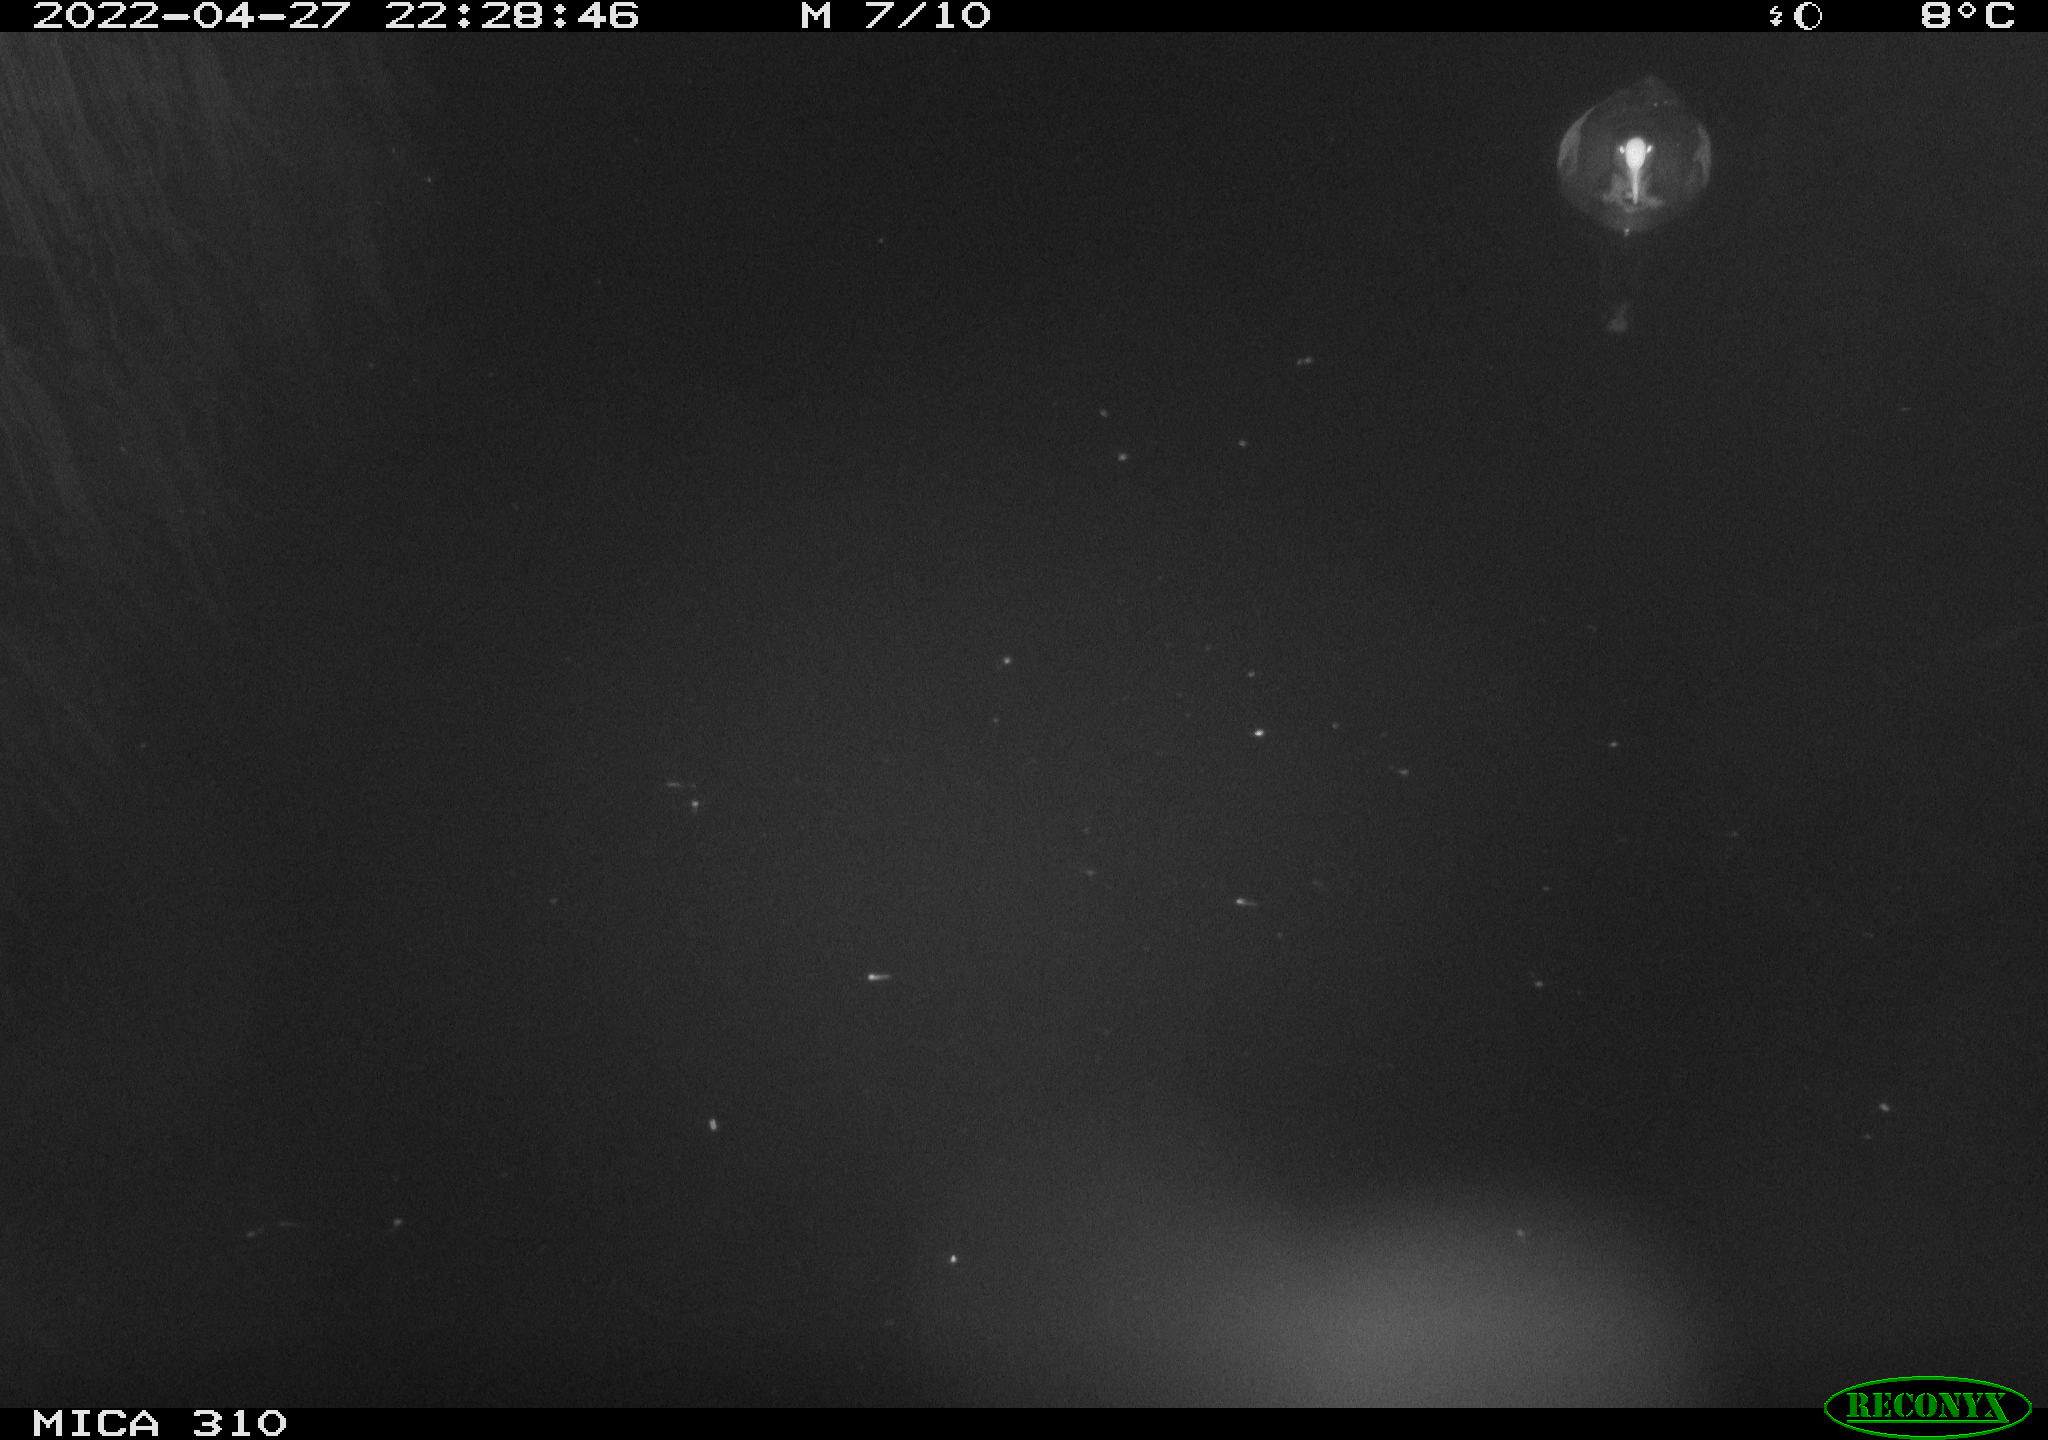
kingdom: Animalia
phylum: Chordata
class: Aves
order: Gruiformes
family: Rallidae
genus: Fulica
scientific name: Fulica atra
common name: Eurasian coot
